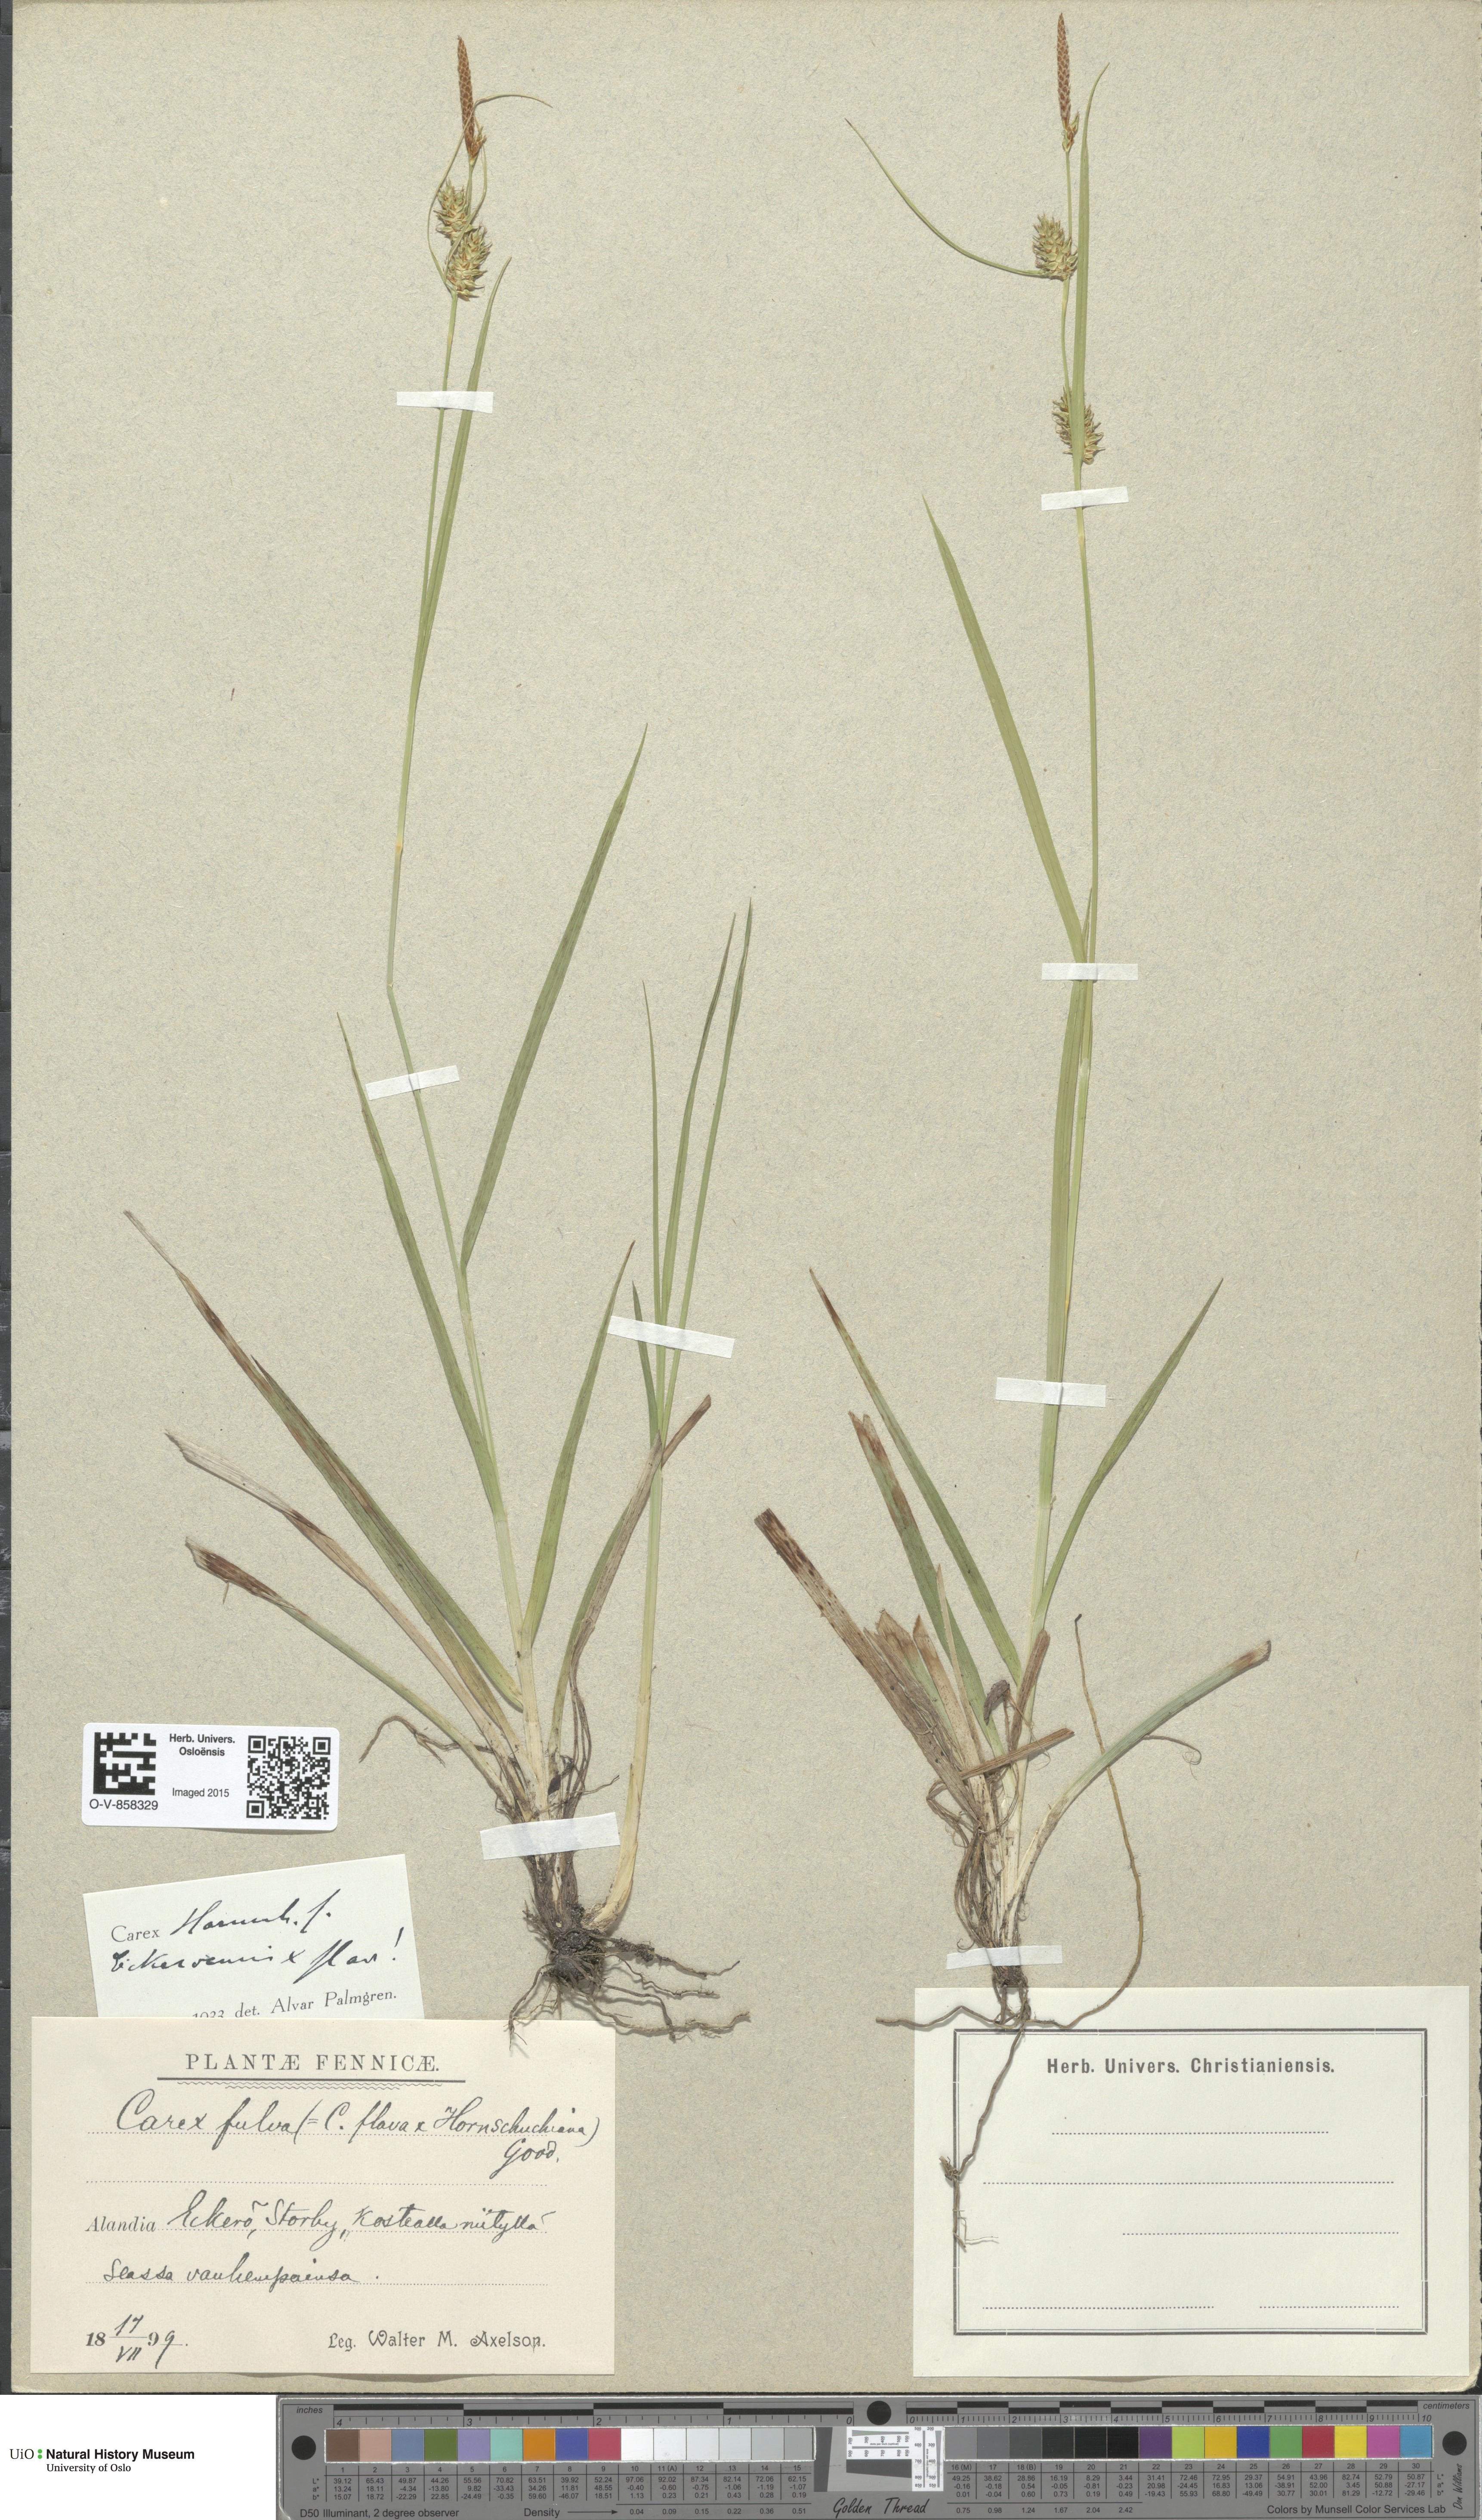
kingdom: Plantae
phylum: Tracheophyta
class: Liliopsida
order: Poales
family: Cyperaceae
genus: Carex
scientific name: Carex
